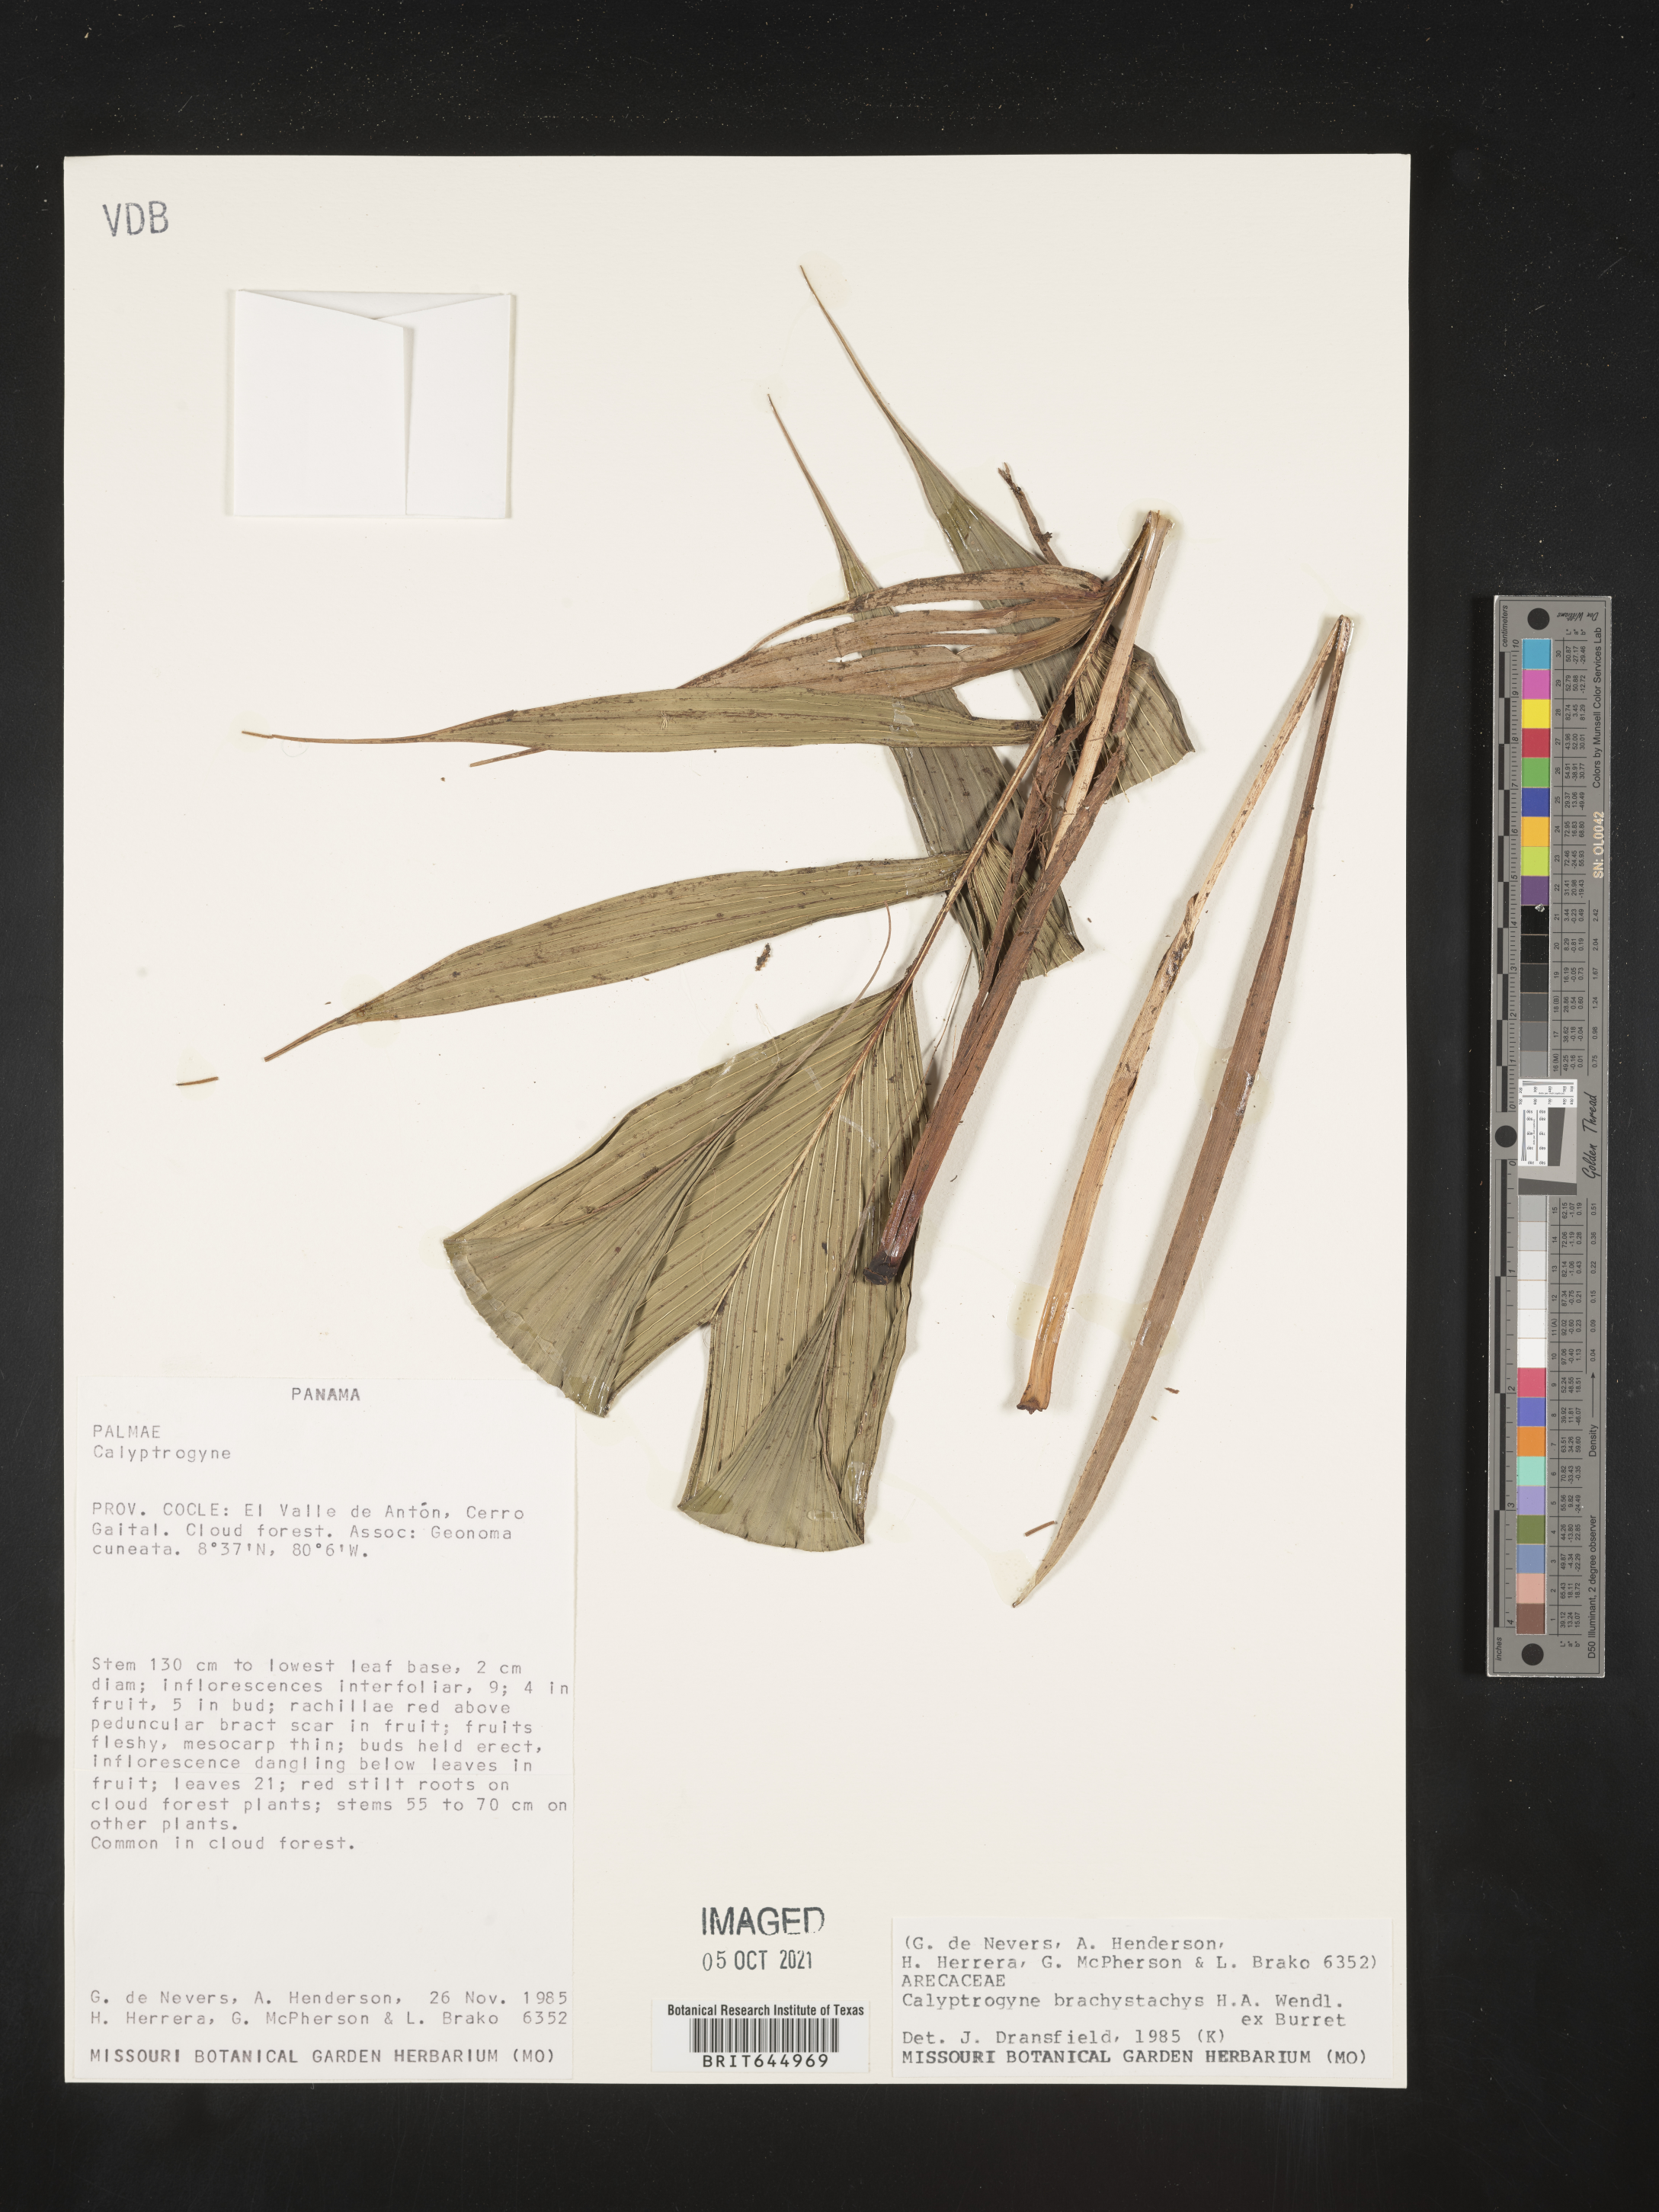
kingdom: Plantae
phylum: Tracheophyta
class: Liliopsida
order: Arecales
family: Arecaceae
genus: Calyptrogyne
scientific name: Calyptrogyne brachystachys
